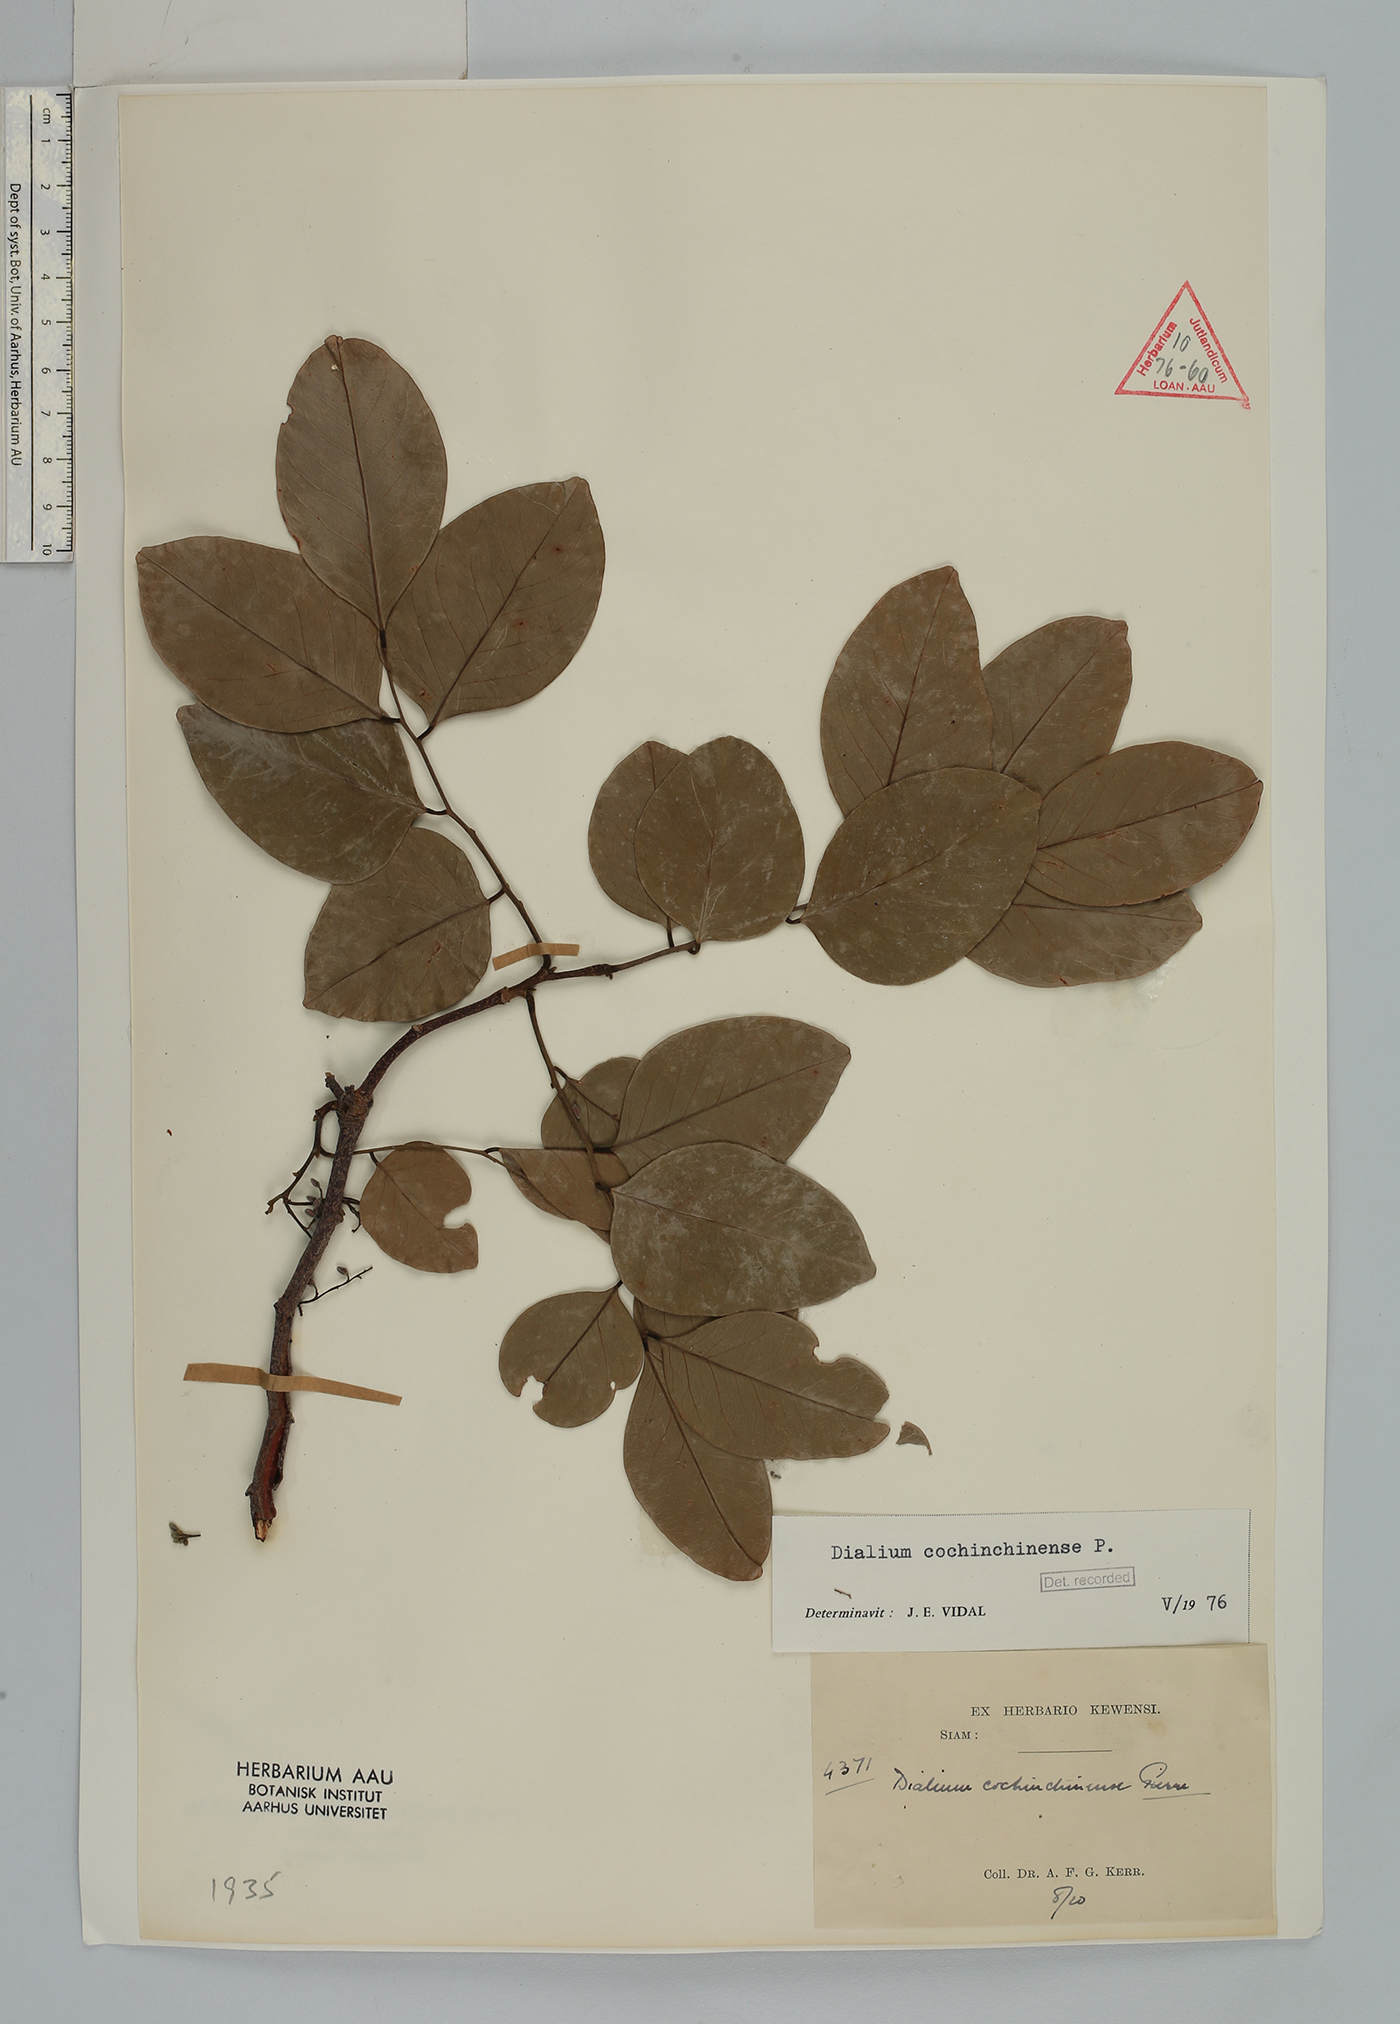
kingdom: Plantae
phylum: Tracheophyta
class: Magnoliopsida
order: Fabales
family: Fabaceae
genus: Dialium
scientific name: Dialium cochinchinense
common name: Velvet tamarind
